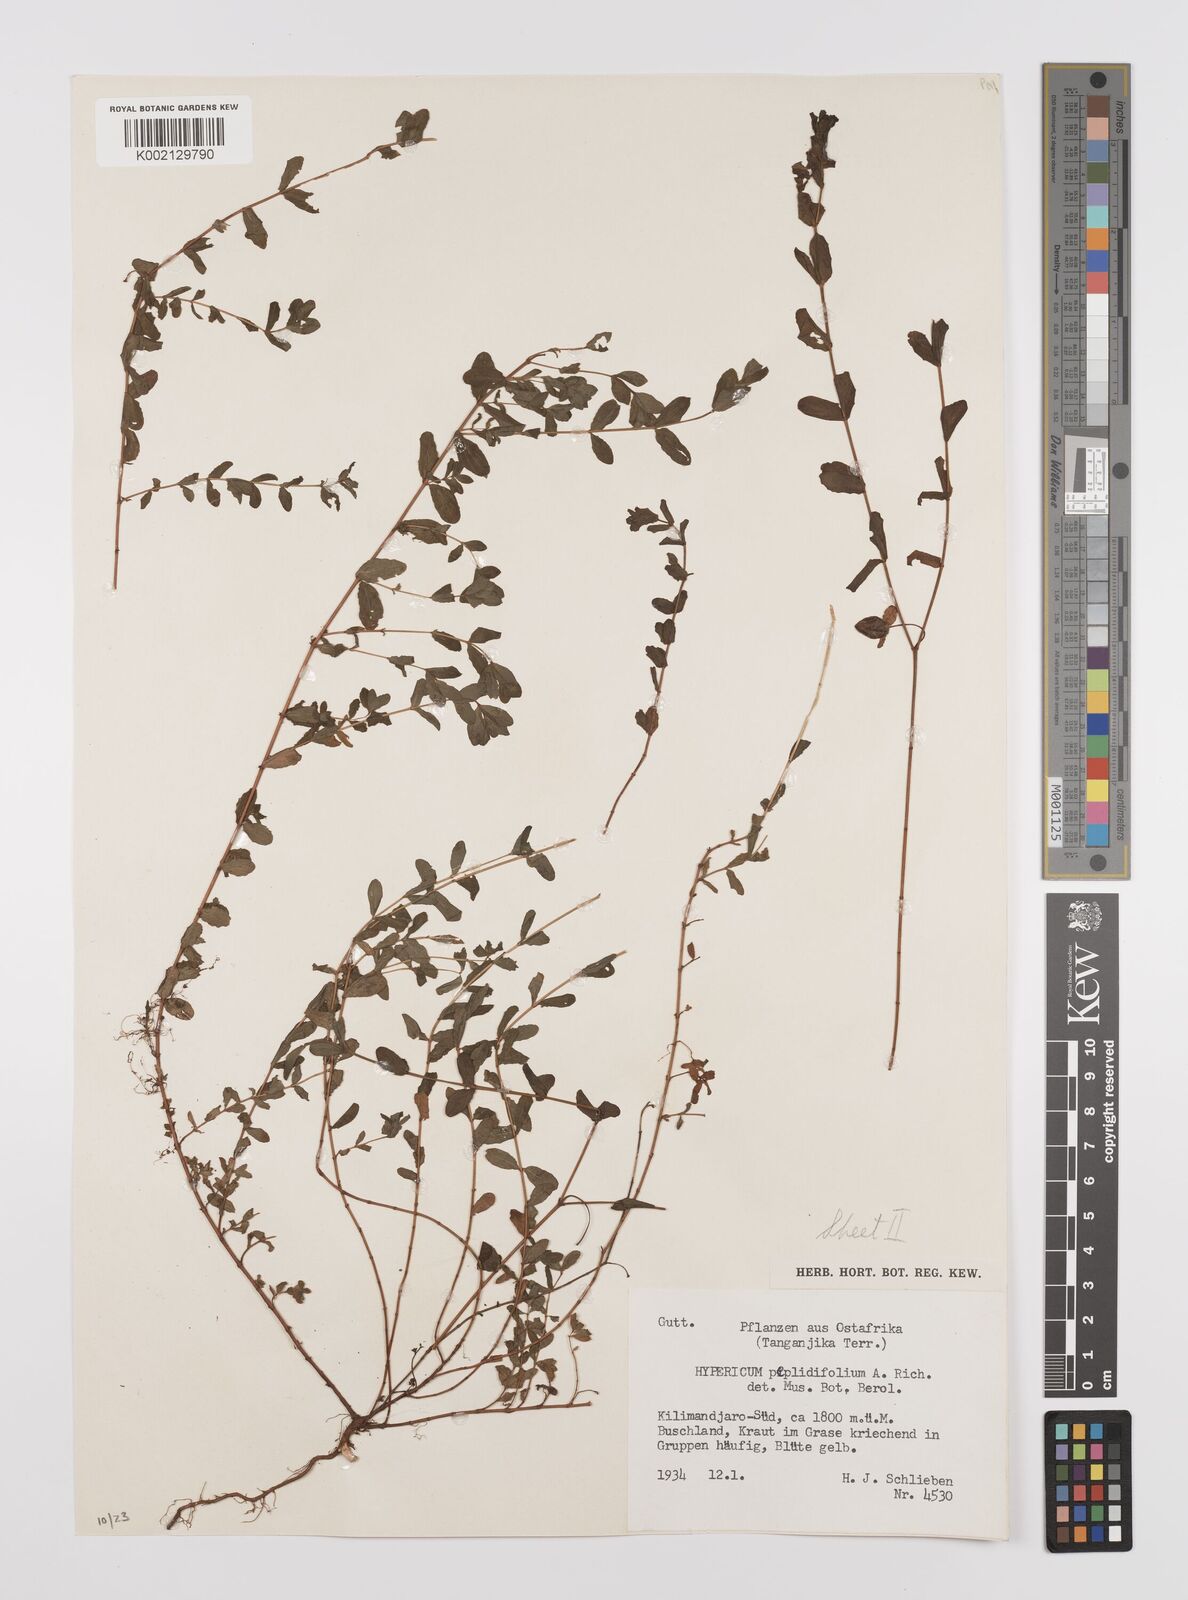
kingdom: Plantae
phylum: Tracheophyta
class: Magnoliopsida
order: Malpighiales
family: Hypericaceae
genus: Hypericum
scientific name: Hypericum peplidifolium
